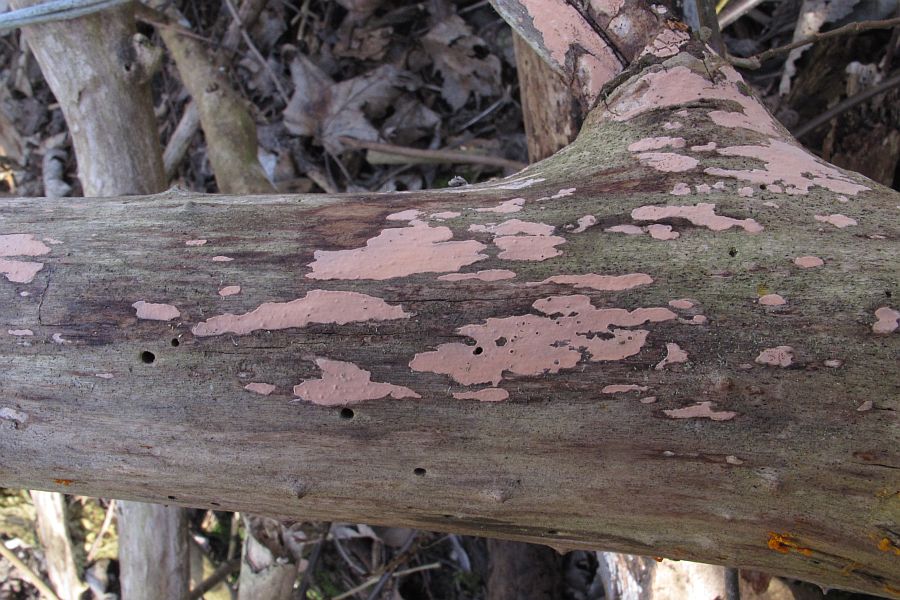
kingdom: Fungi
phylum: Basidiomycota
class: Agaricomycetes
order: Russulales
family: Peniophoraceae
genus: Peniophora
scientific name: Peniophora incarnata
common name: laksefarvet voksskind
